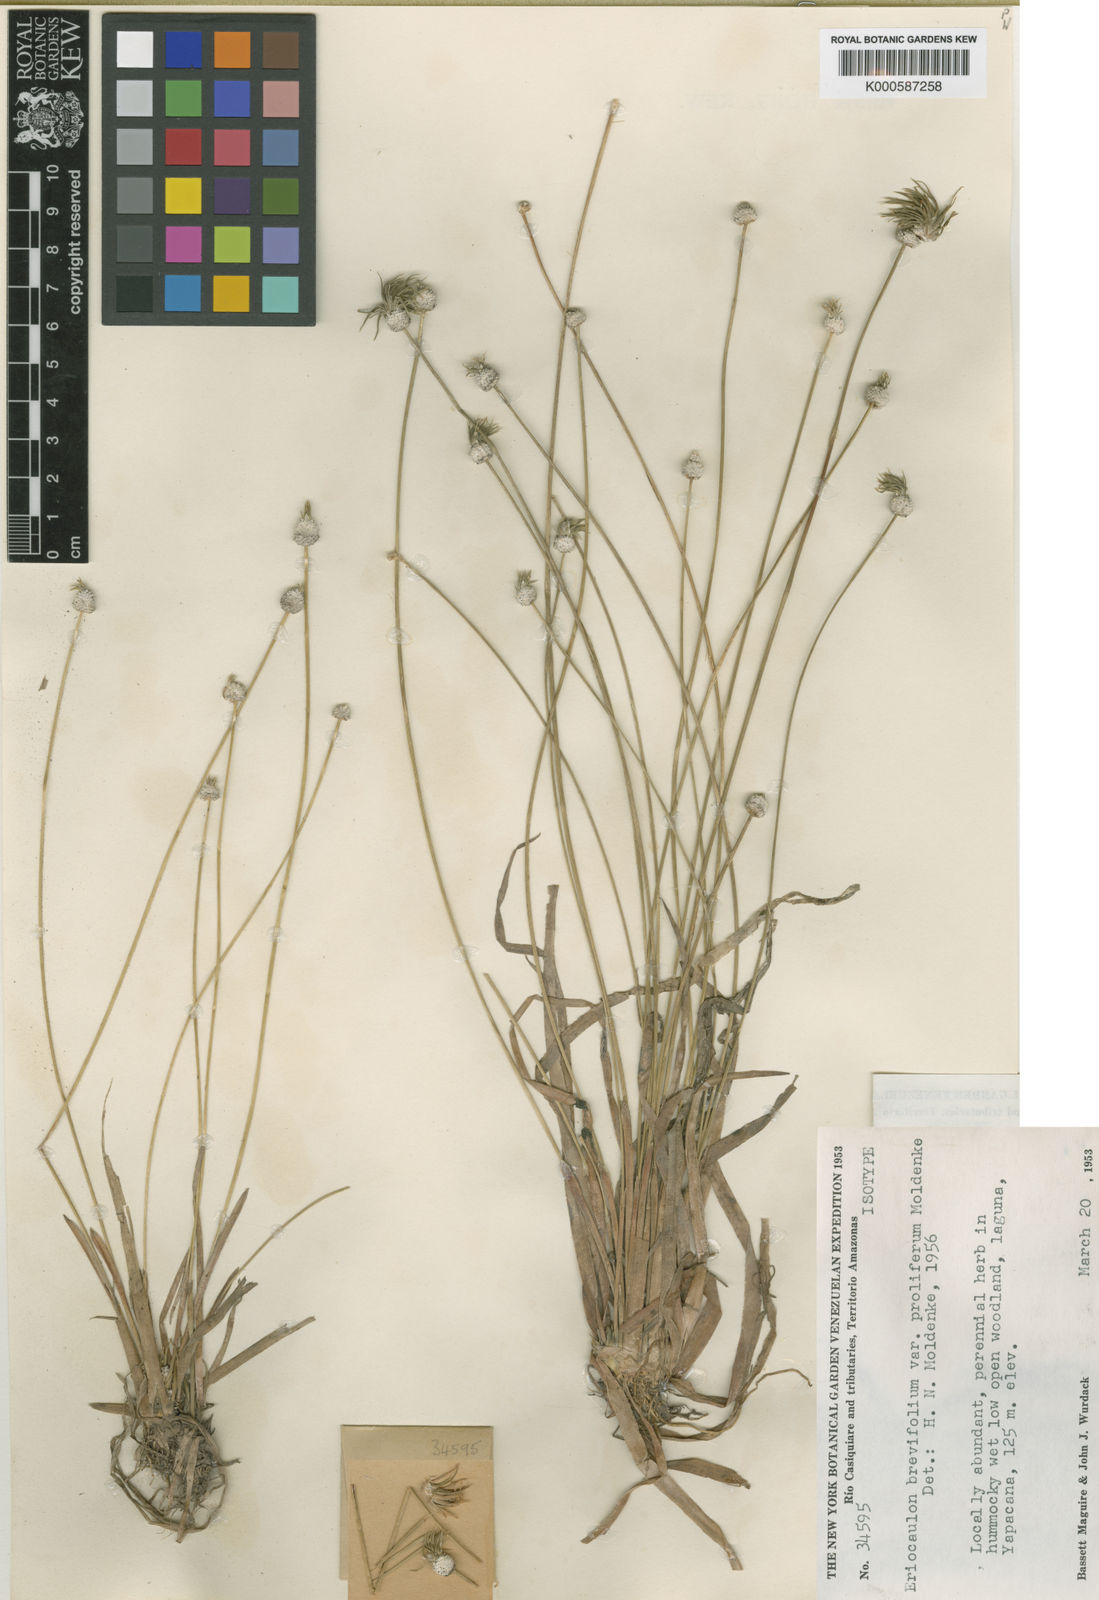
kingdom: Plantae
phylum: Tracheophyta
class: Liliopsida
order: Poales
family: Eriocaulaceae
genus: Eriocaulon
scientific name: Eriocaulon
